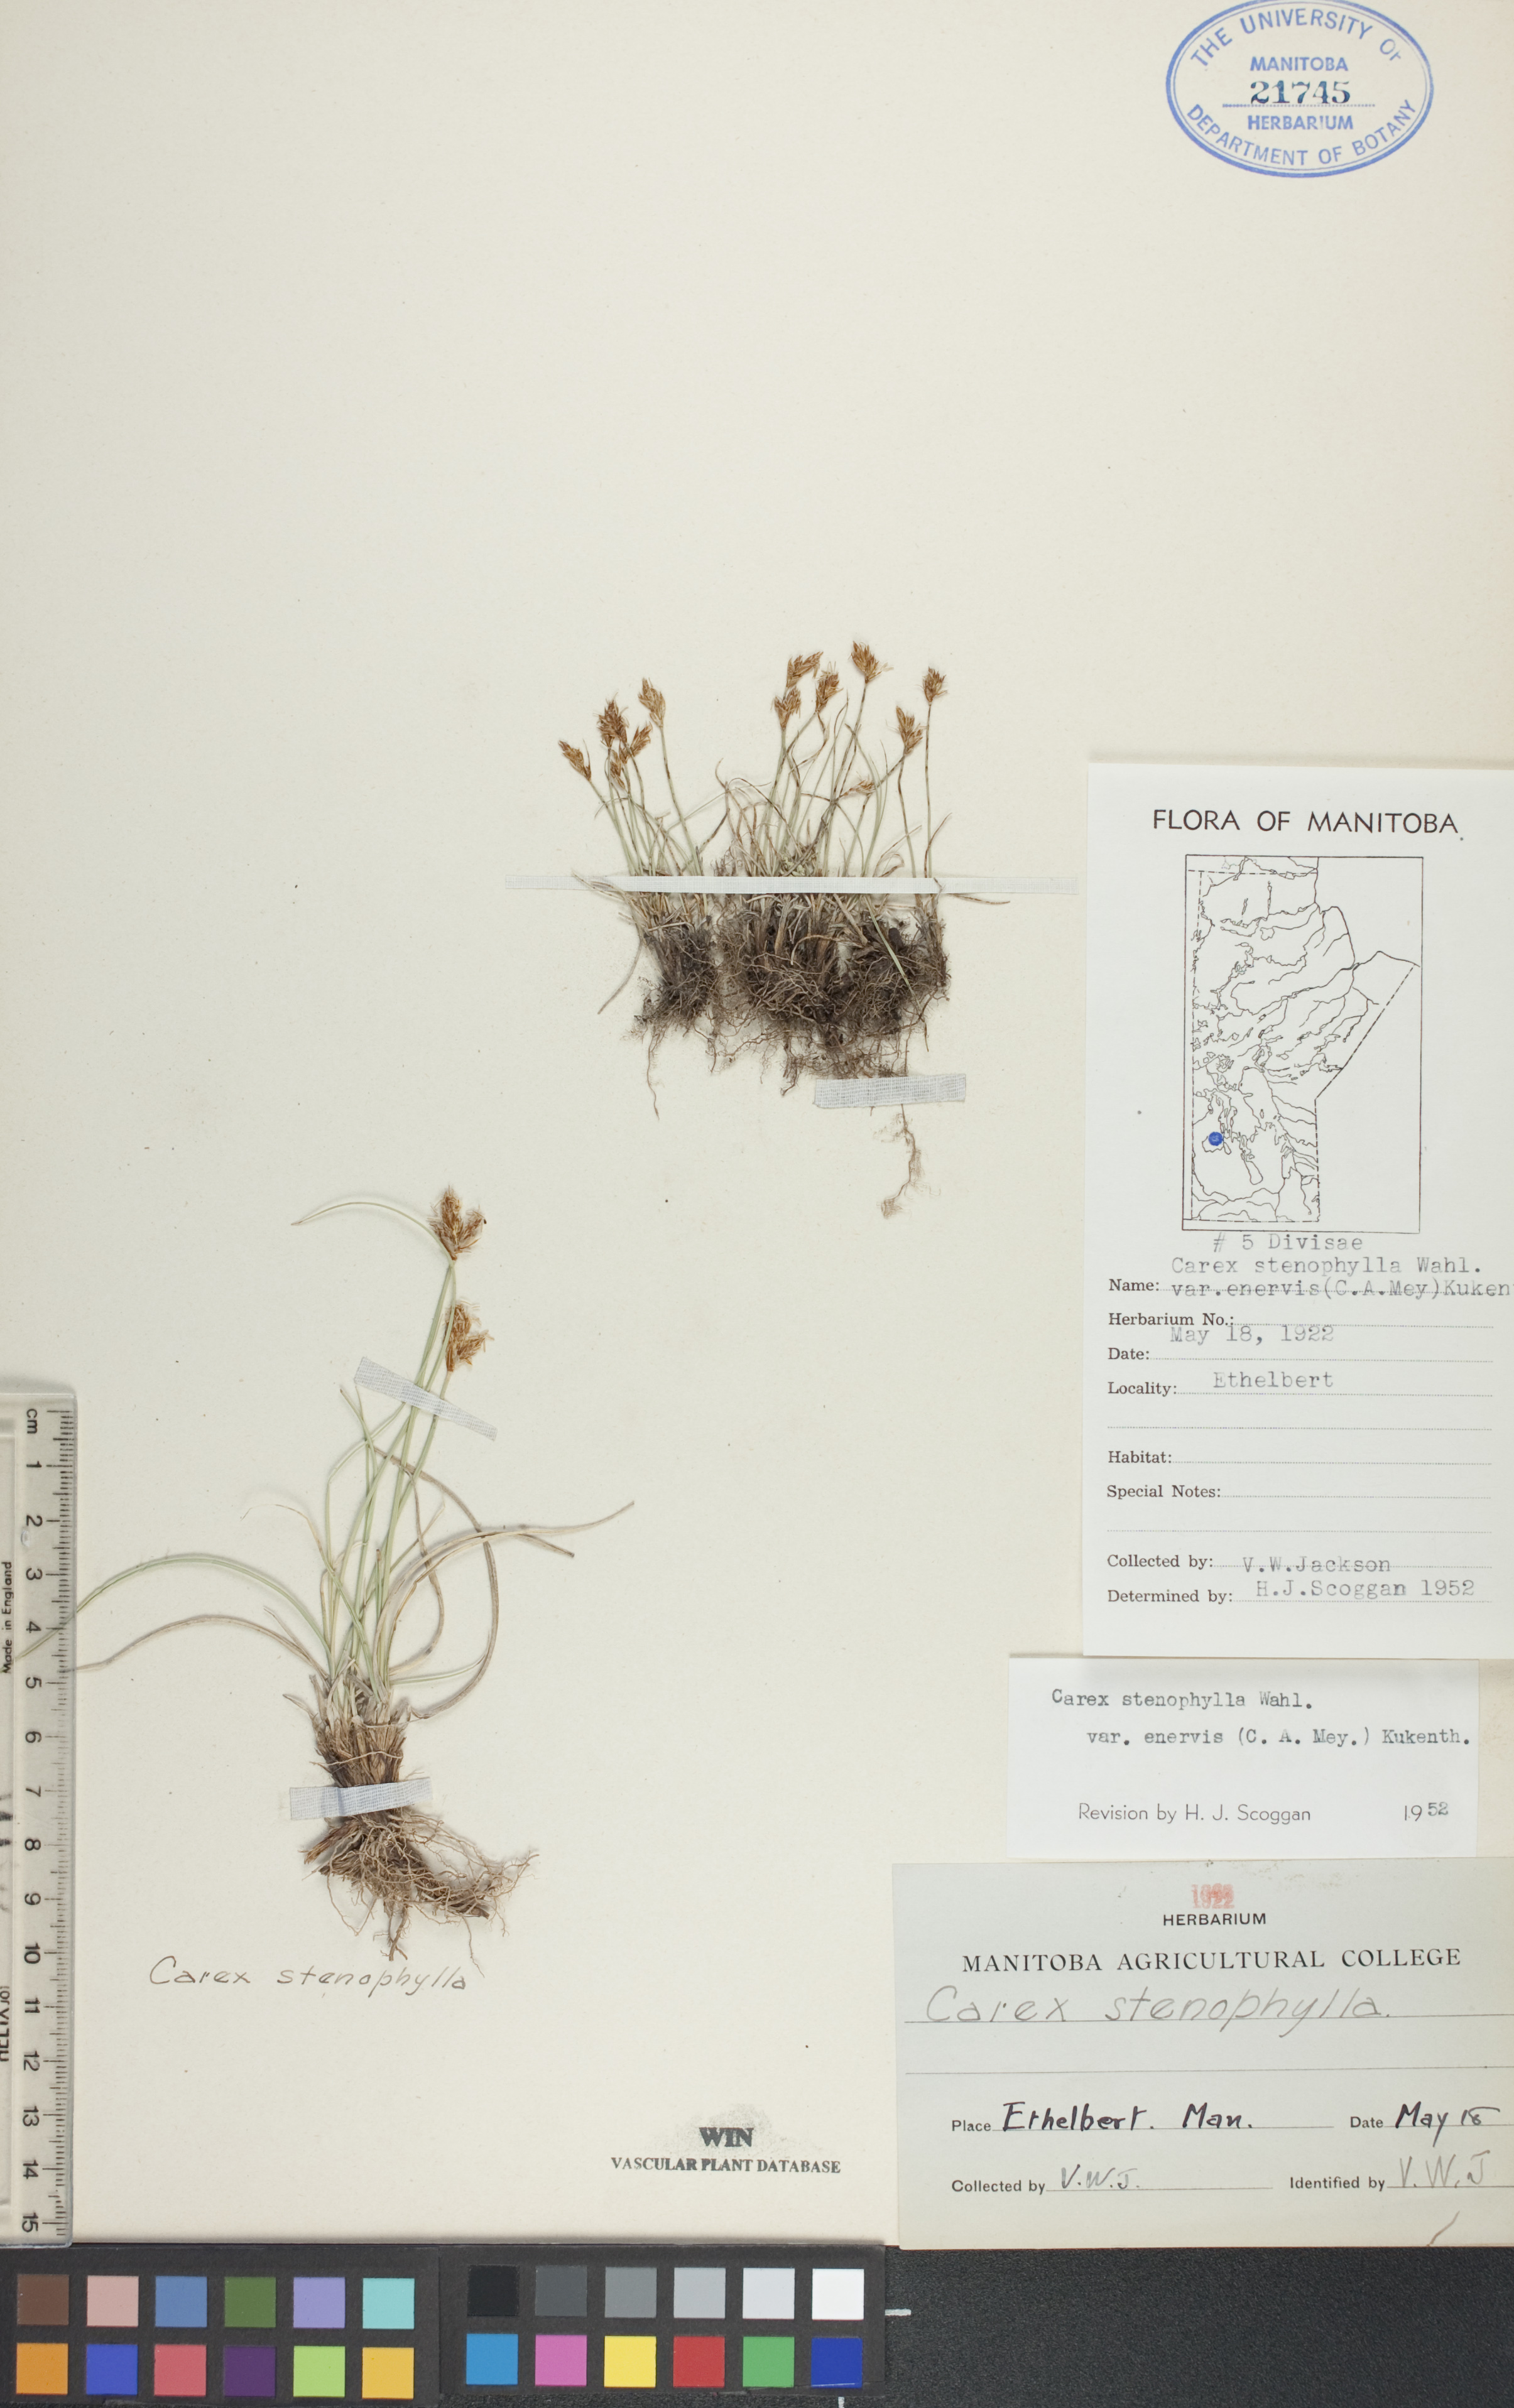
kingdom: Plantae
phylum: Tracheophyta
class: Liliopsida
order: Poales
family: Cyperaceae
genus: Carex
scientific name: Carex enervis
